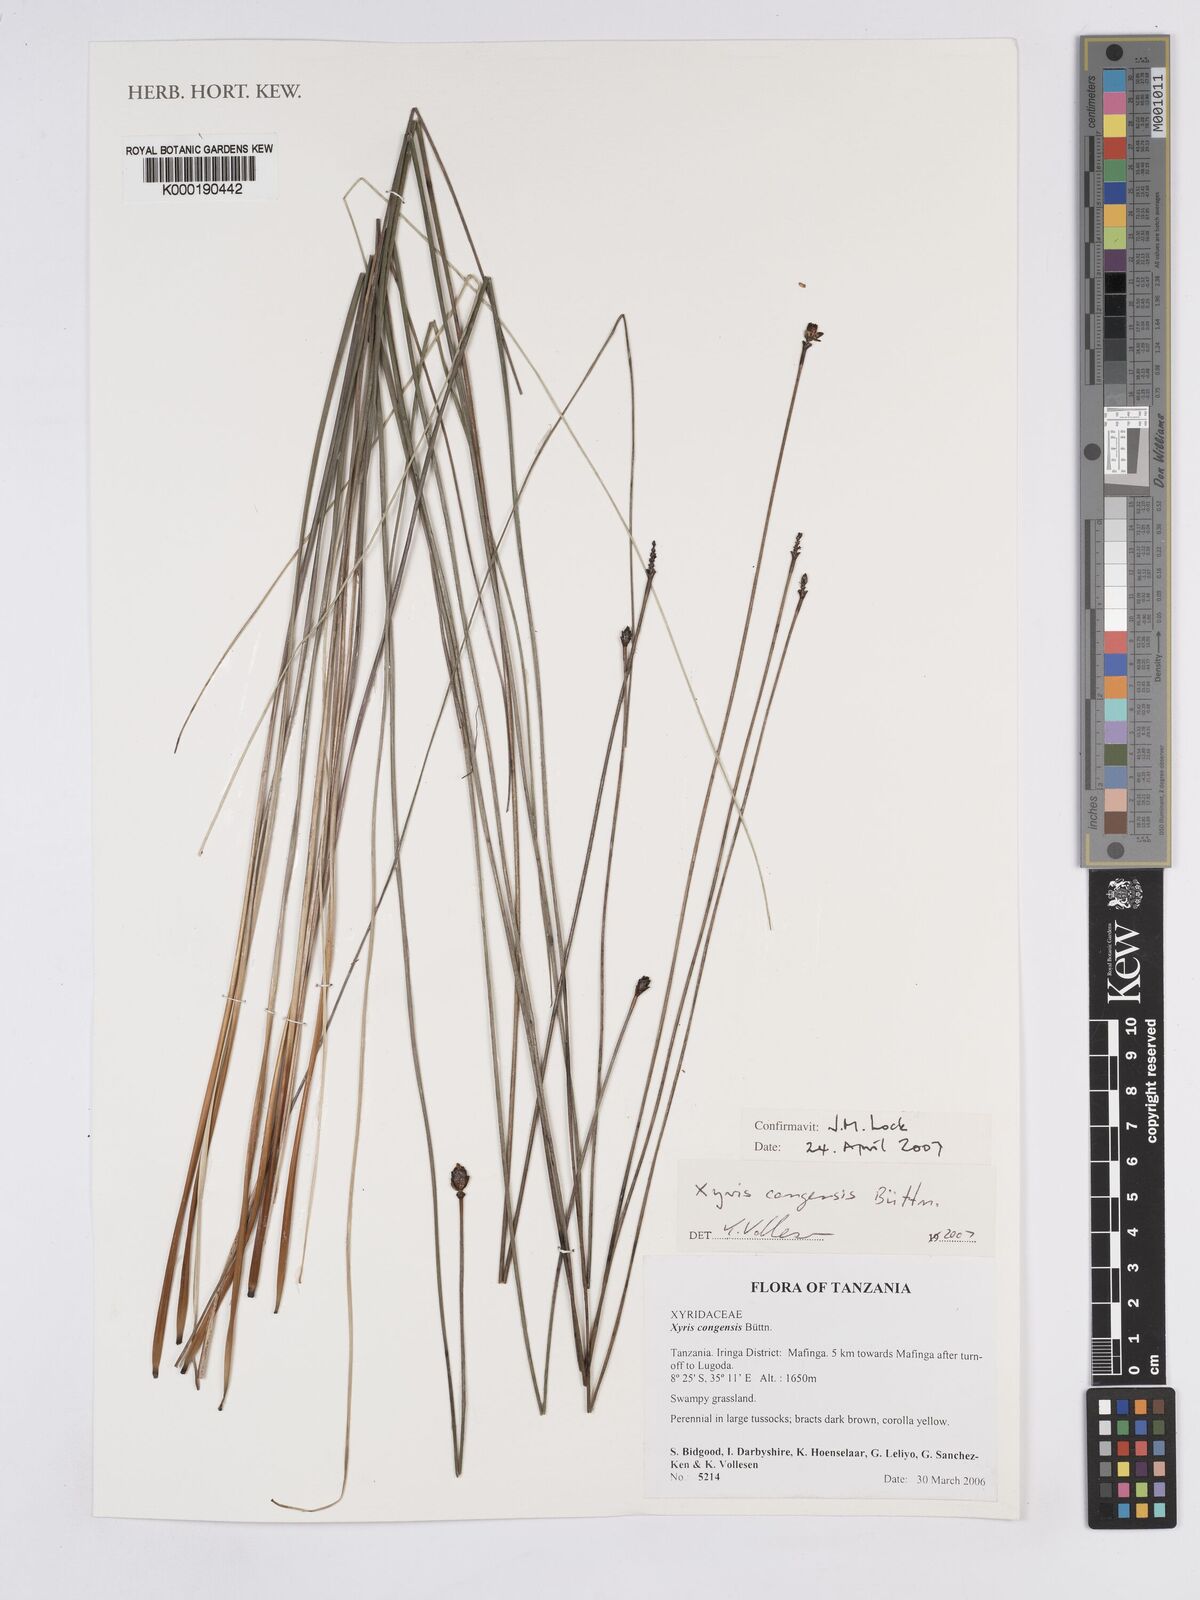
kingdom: Plantae
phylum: Tracheophyta
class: Liliopsida
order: Poales
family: Xyridaceae
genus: Xyris
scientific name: Xyris
